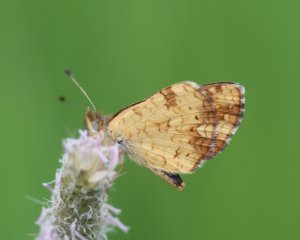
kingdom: Animalia
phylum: Arthropoda
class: Insecta
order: Lepidoptera
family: Nymphalidae
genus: Phyciodes
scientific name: Phyciodes tharos
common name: Field Crescent
